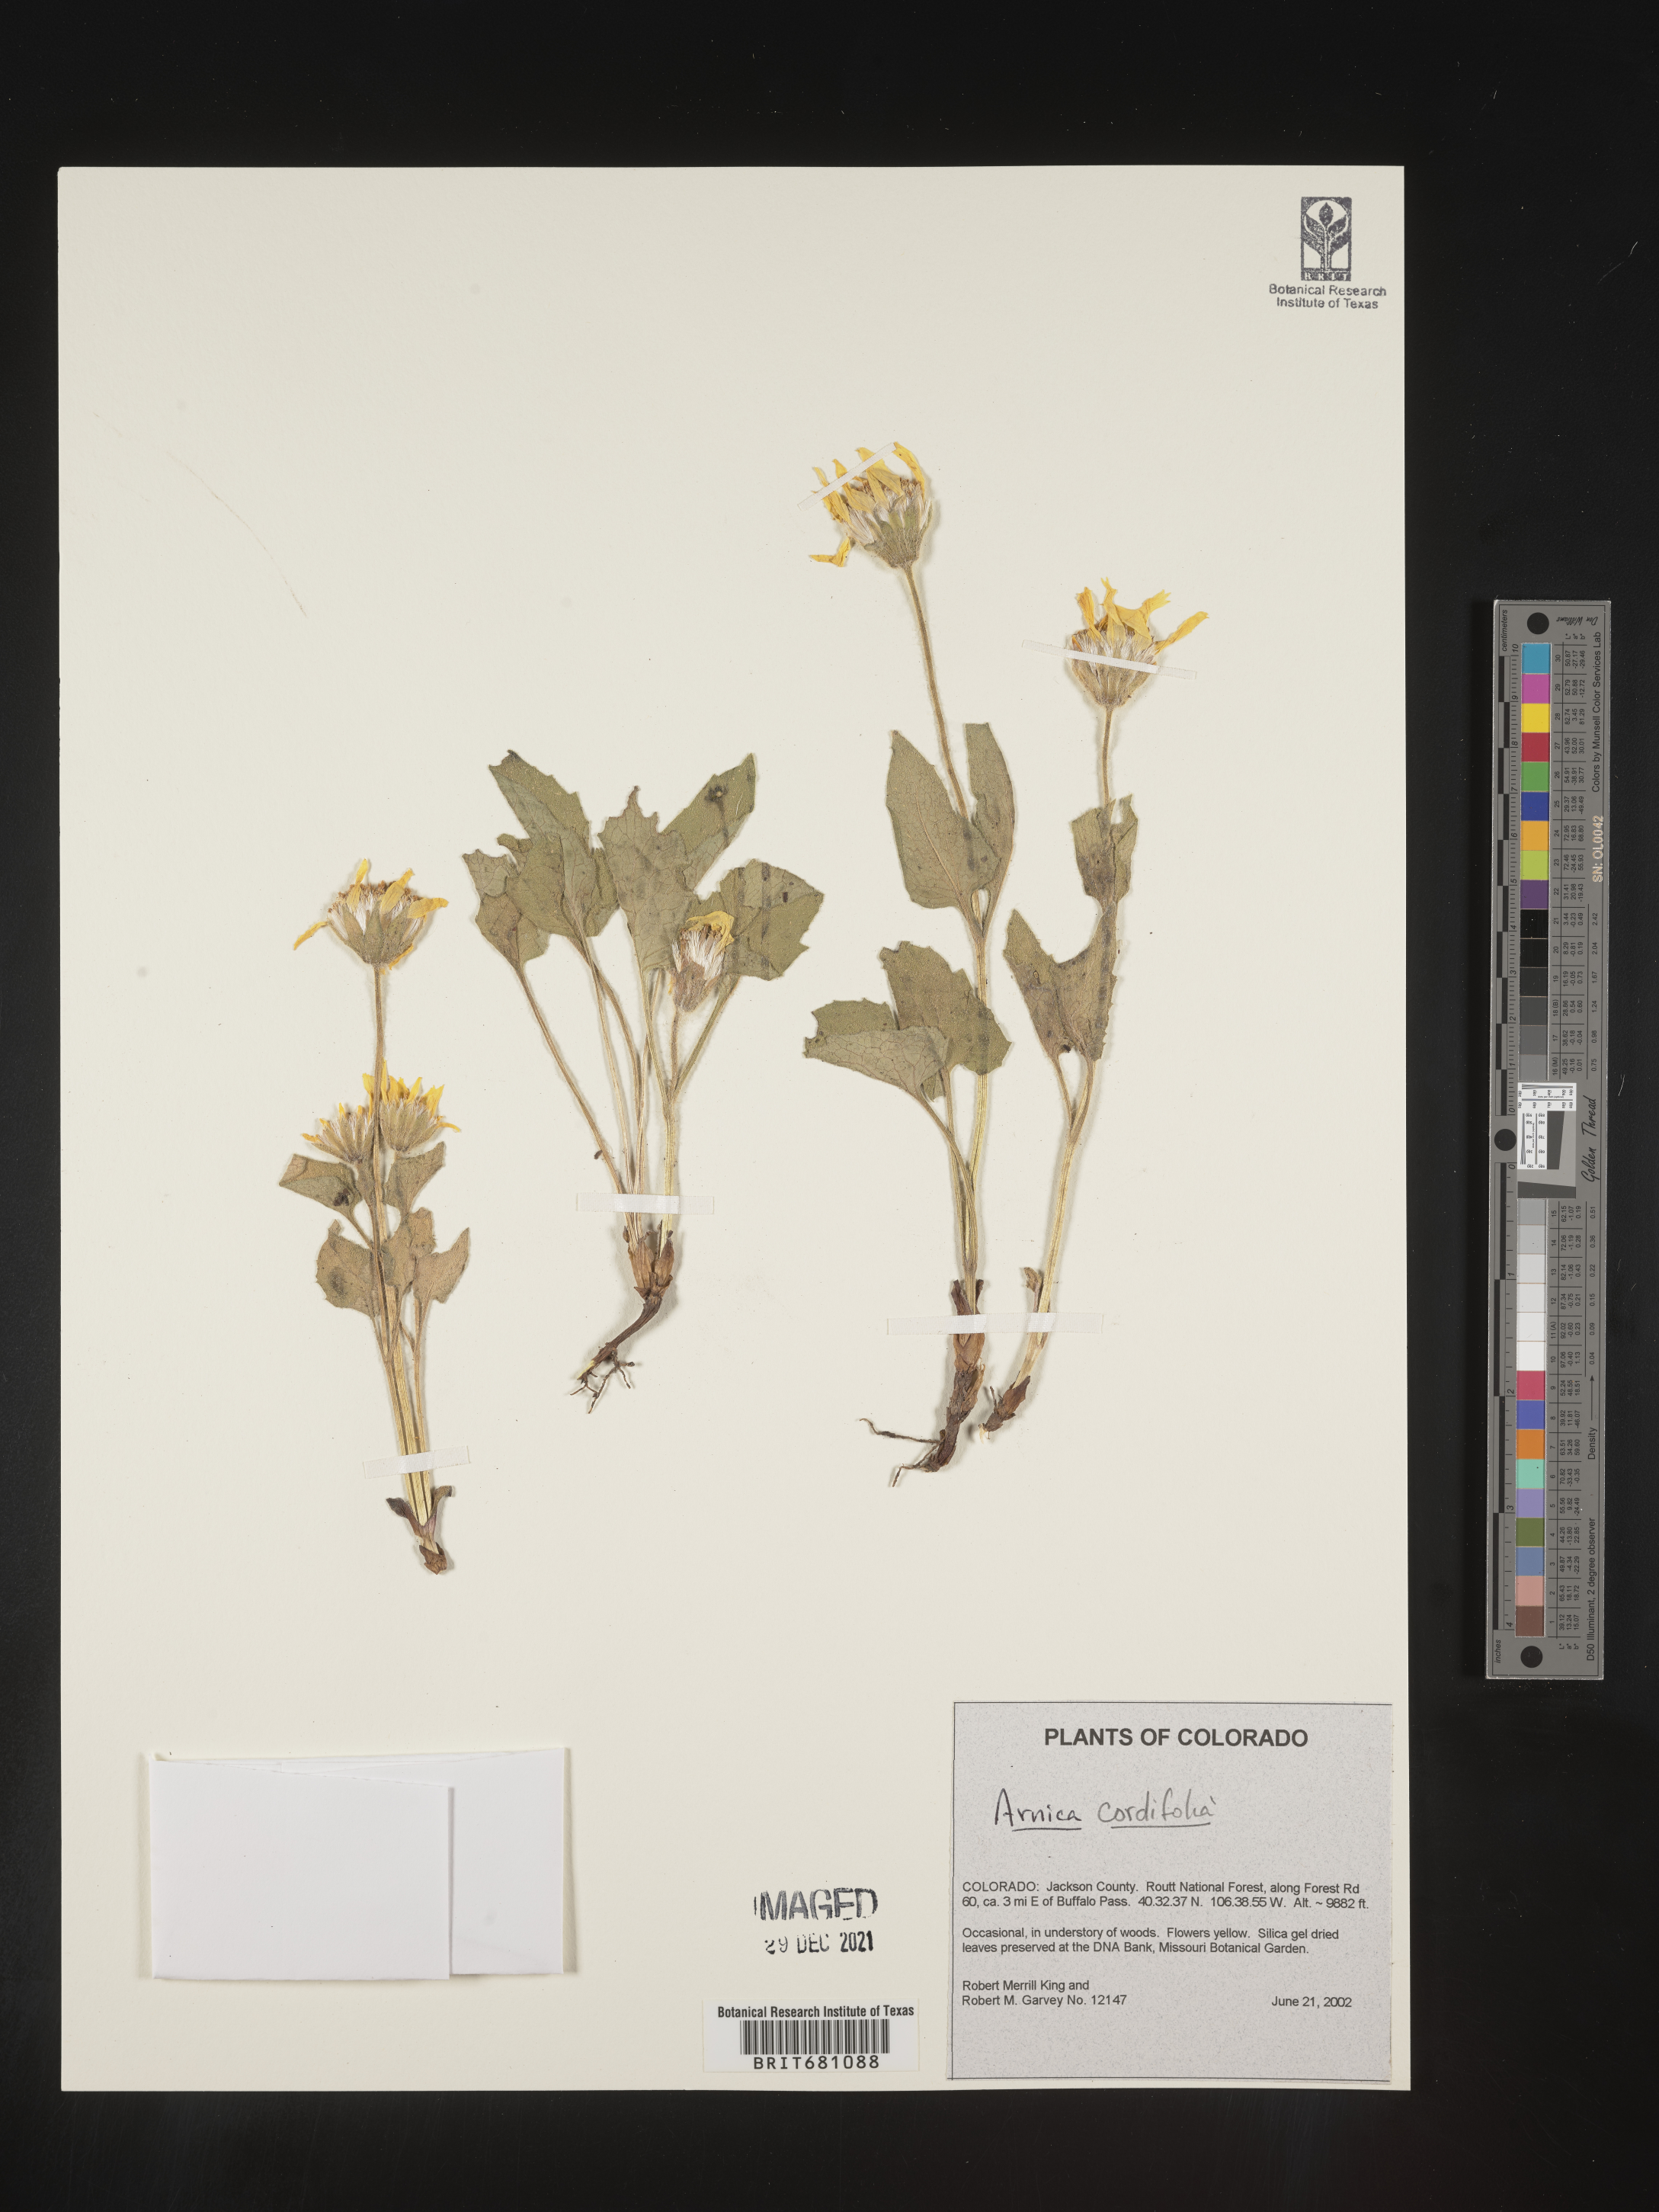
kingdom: Plantae
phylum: Tracheophyta
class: Magnoliopsida
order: Asterales
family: Asteraceae
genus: Arnica
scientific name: Arnica cordifolia
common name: Heart-leaf arnica
